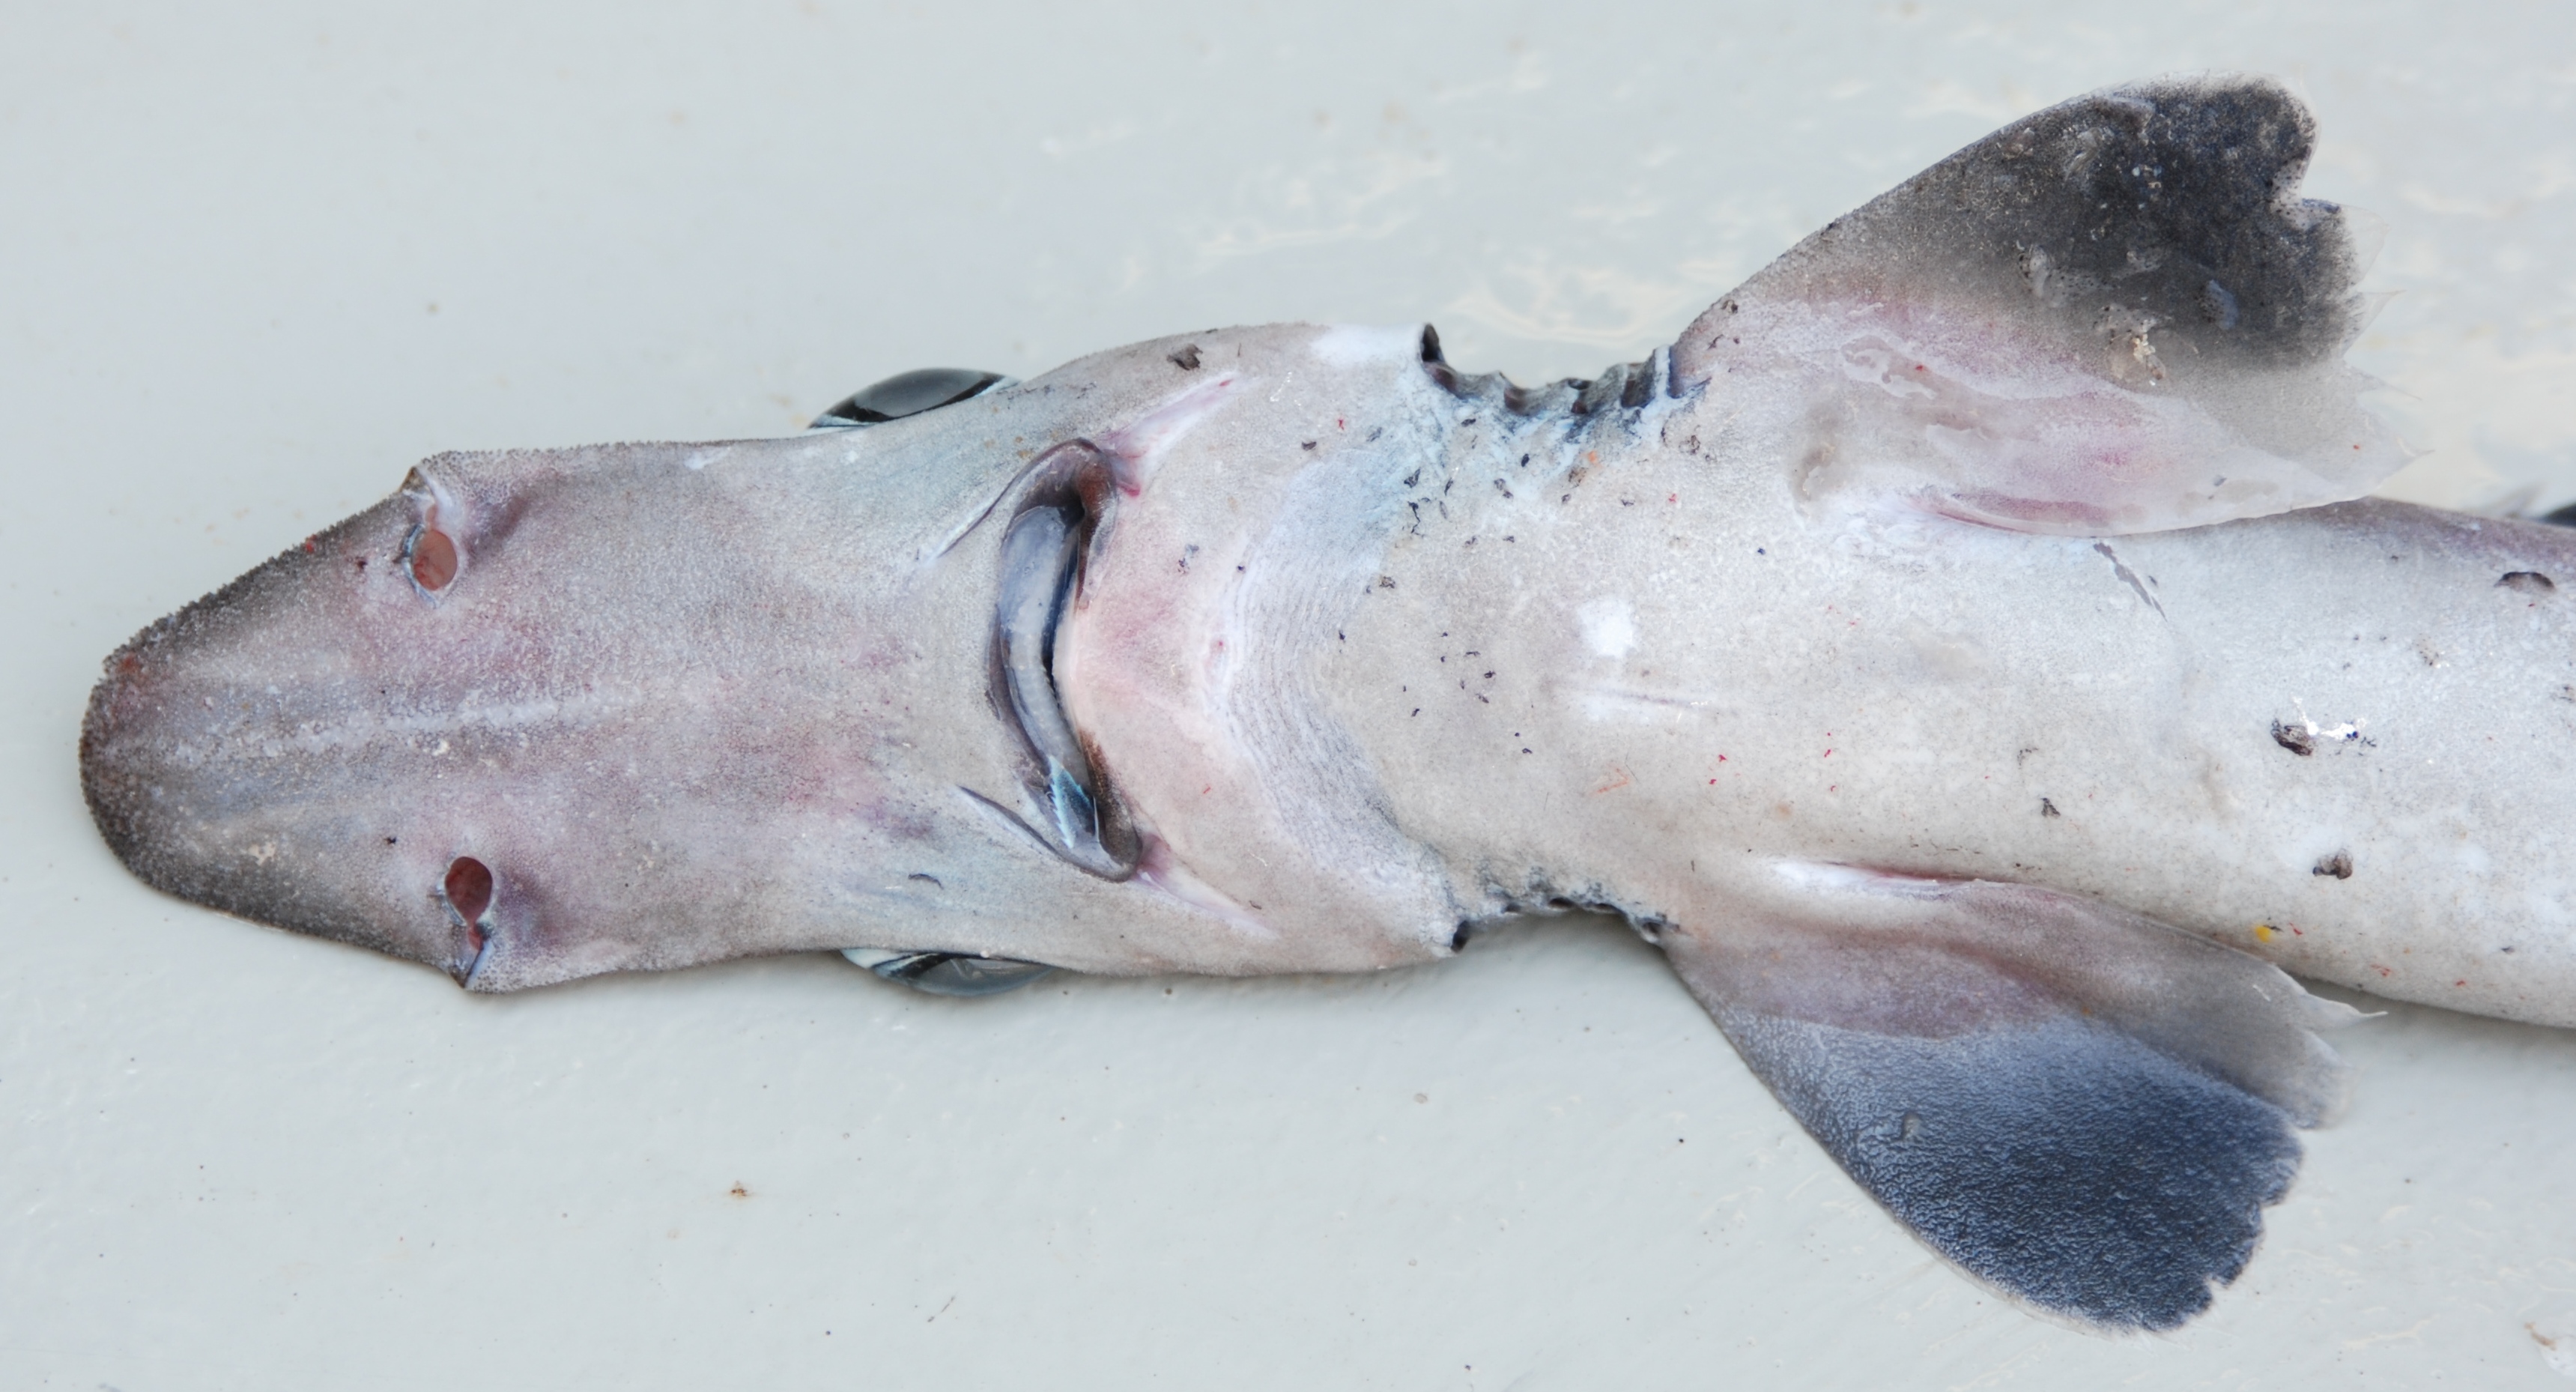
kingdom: Animalia
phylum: Chordata
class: Elasmobranchii
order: Squaliformes
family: Centrophoridae
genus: Deania
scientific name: Deania quadrispinosa
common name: Longsnout dogfish
